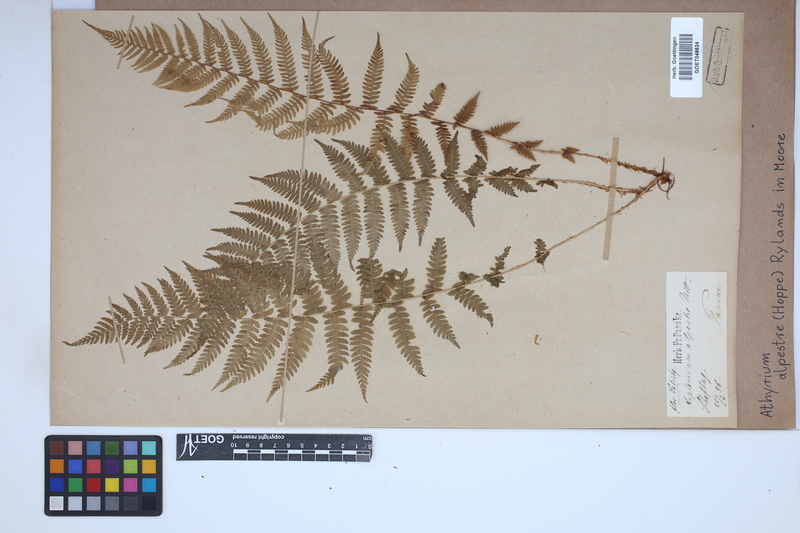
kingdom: Plantae
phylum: Tracheophyta
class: Polypodiopsida
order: Polypodiales
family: Athyriaceae
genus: Pseudathyrium
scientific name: Pseudathyrium alpestre
